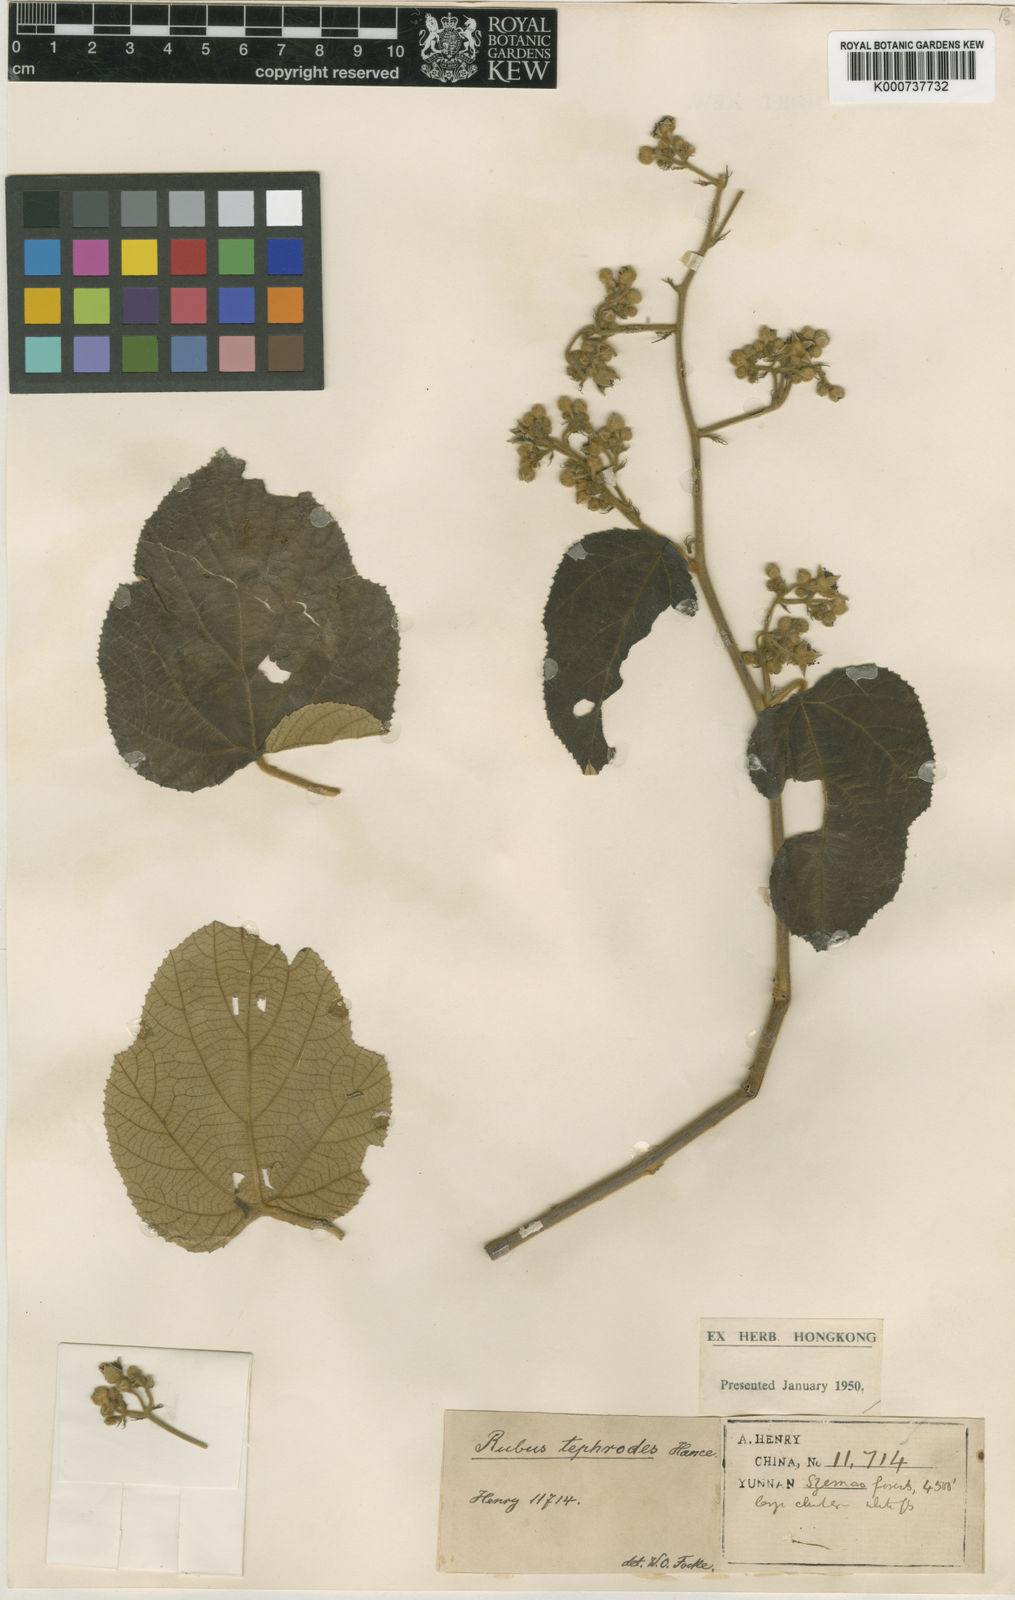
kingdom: Plantae
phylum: Tracheophyta
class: Magnoliopsida
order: Rosales
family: Rosaceae
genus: Rubus
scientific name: Rubus evadens
